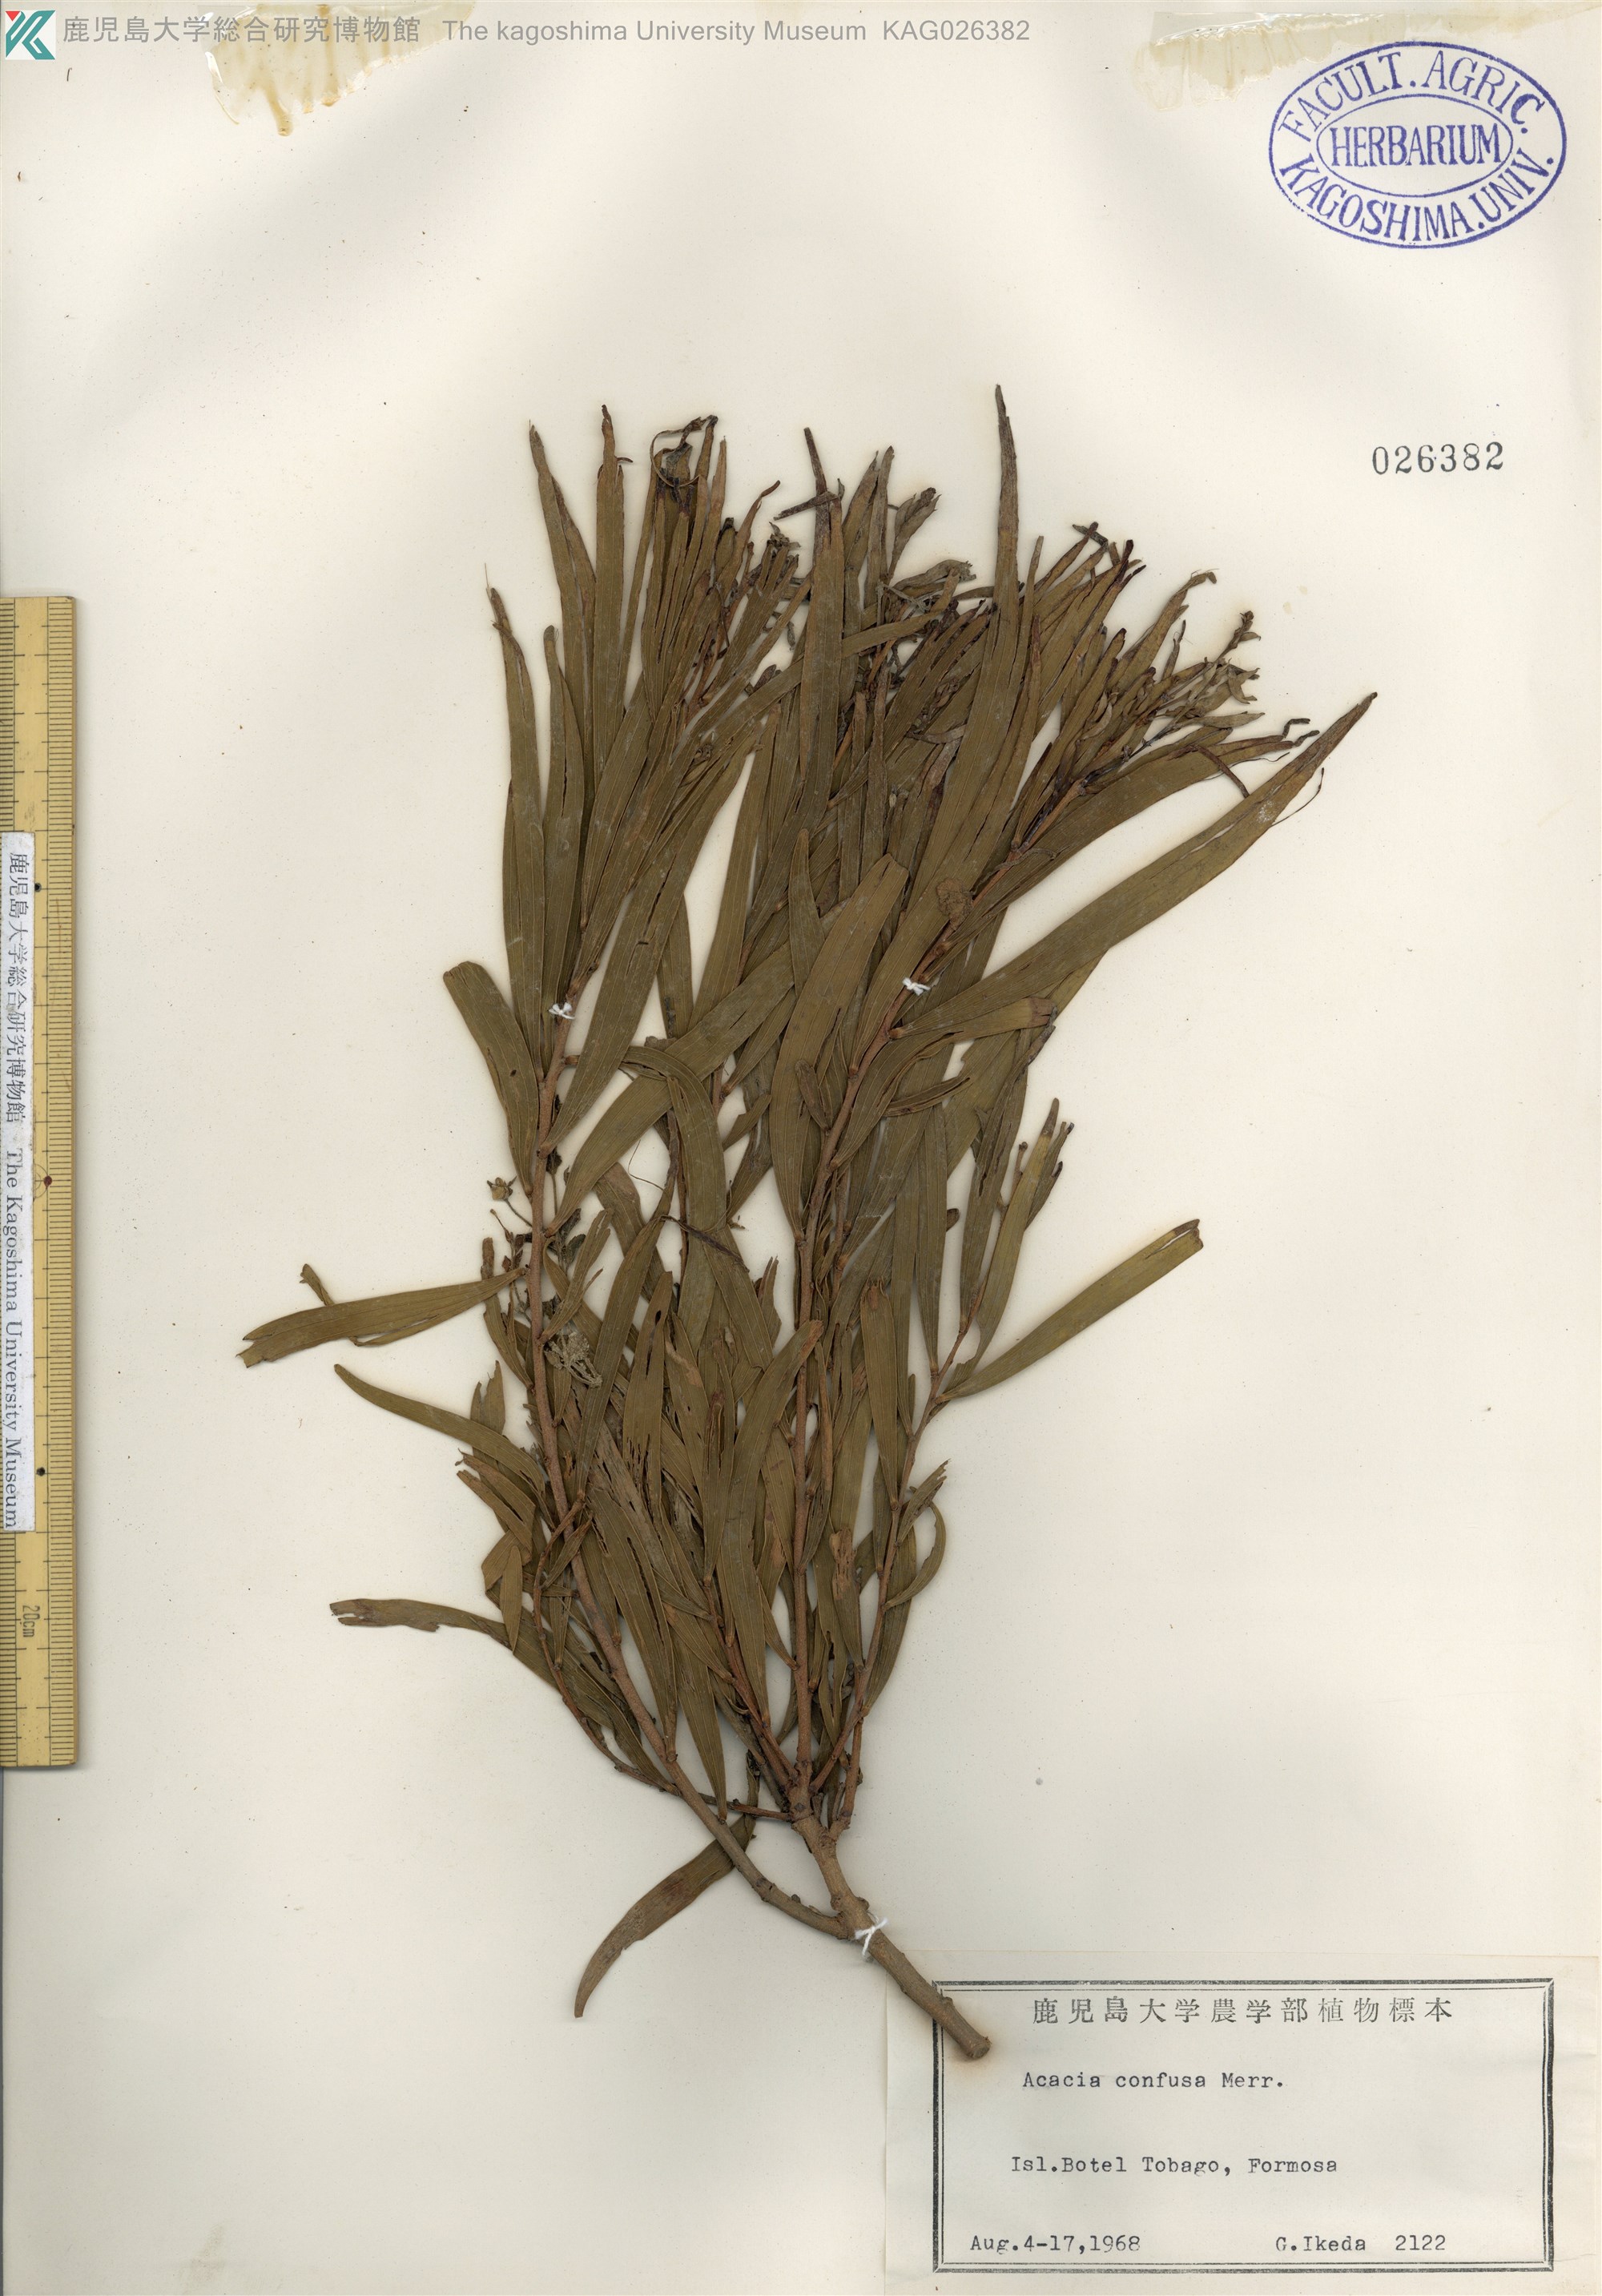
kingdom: Plantae
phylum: Tracheophyta
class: Magnoliopsida
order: Fabales
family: Fabaceae
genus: Acacia
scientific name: Acacia confusa
